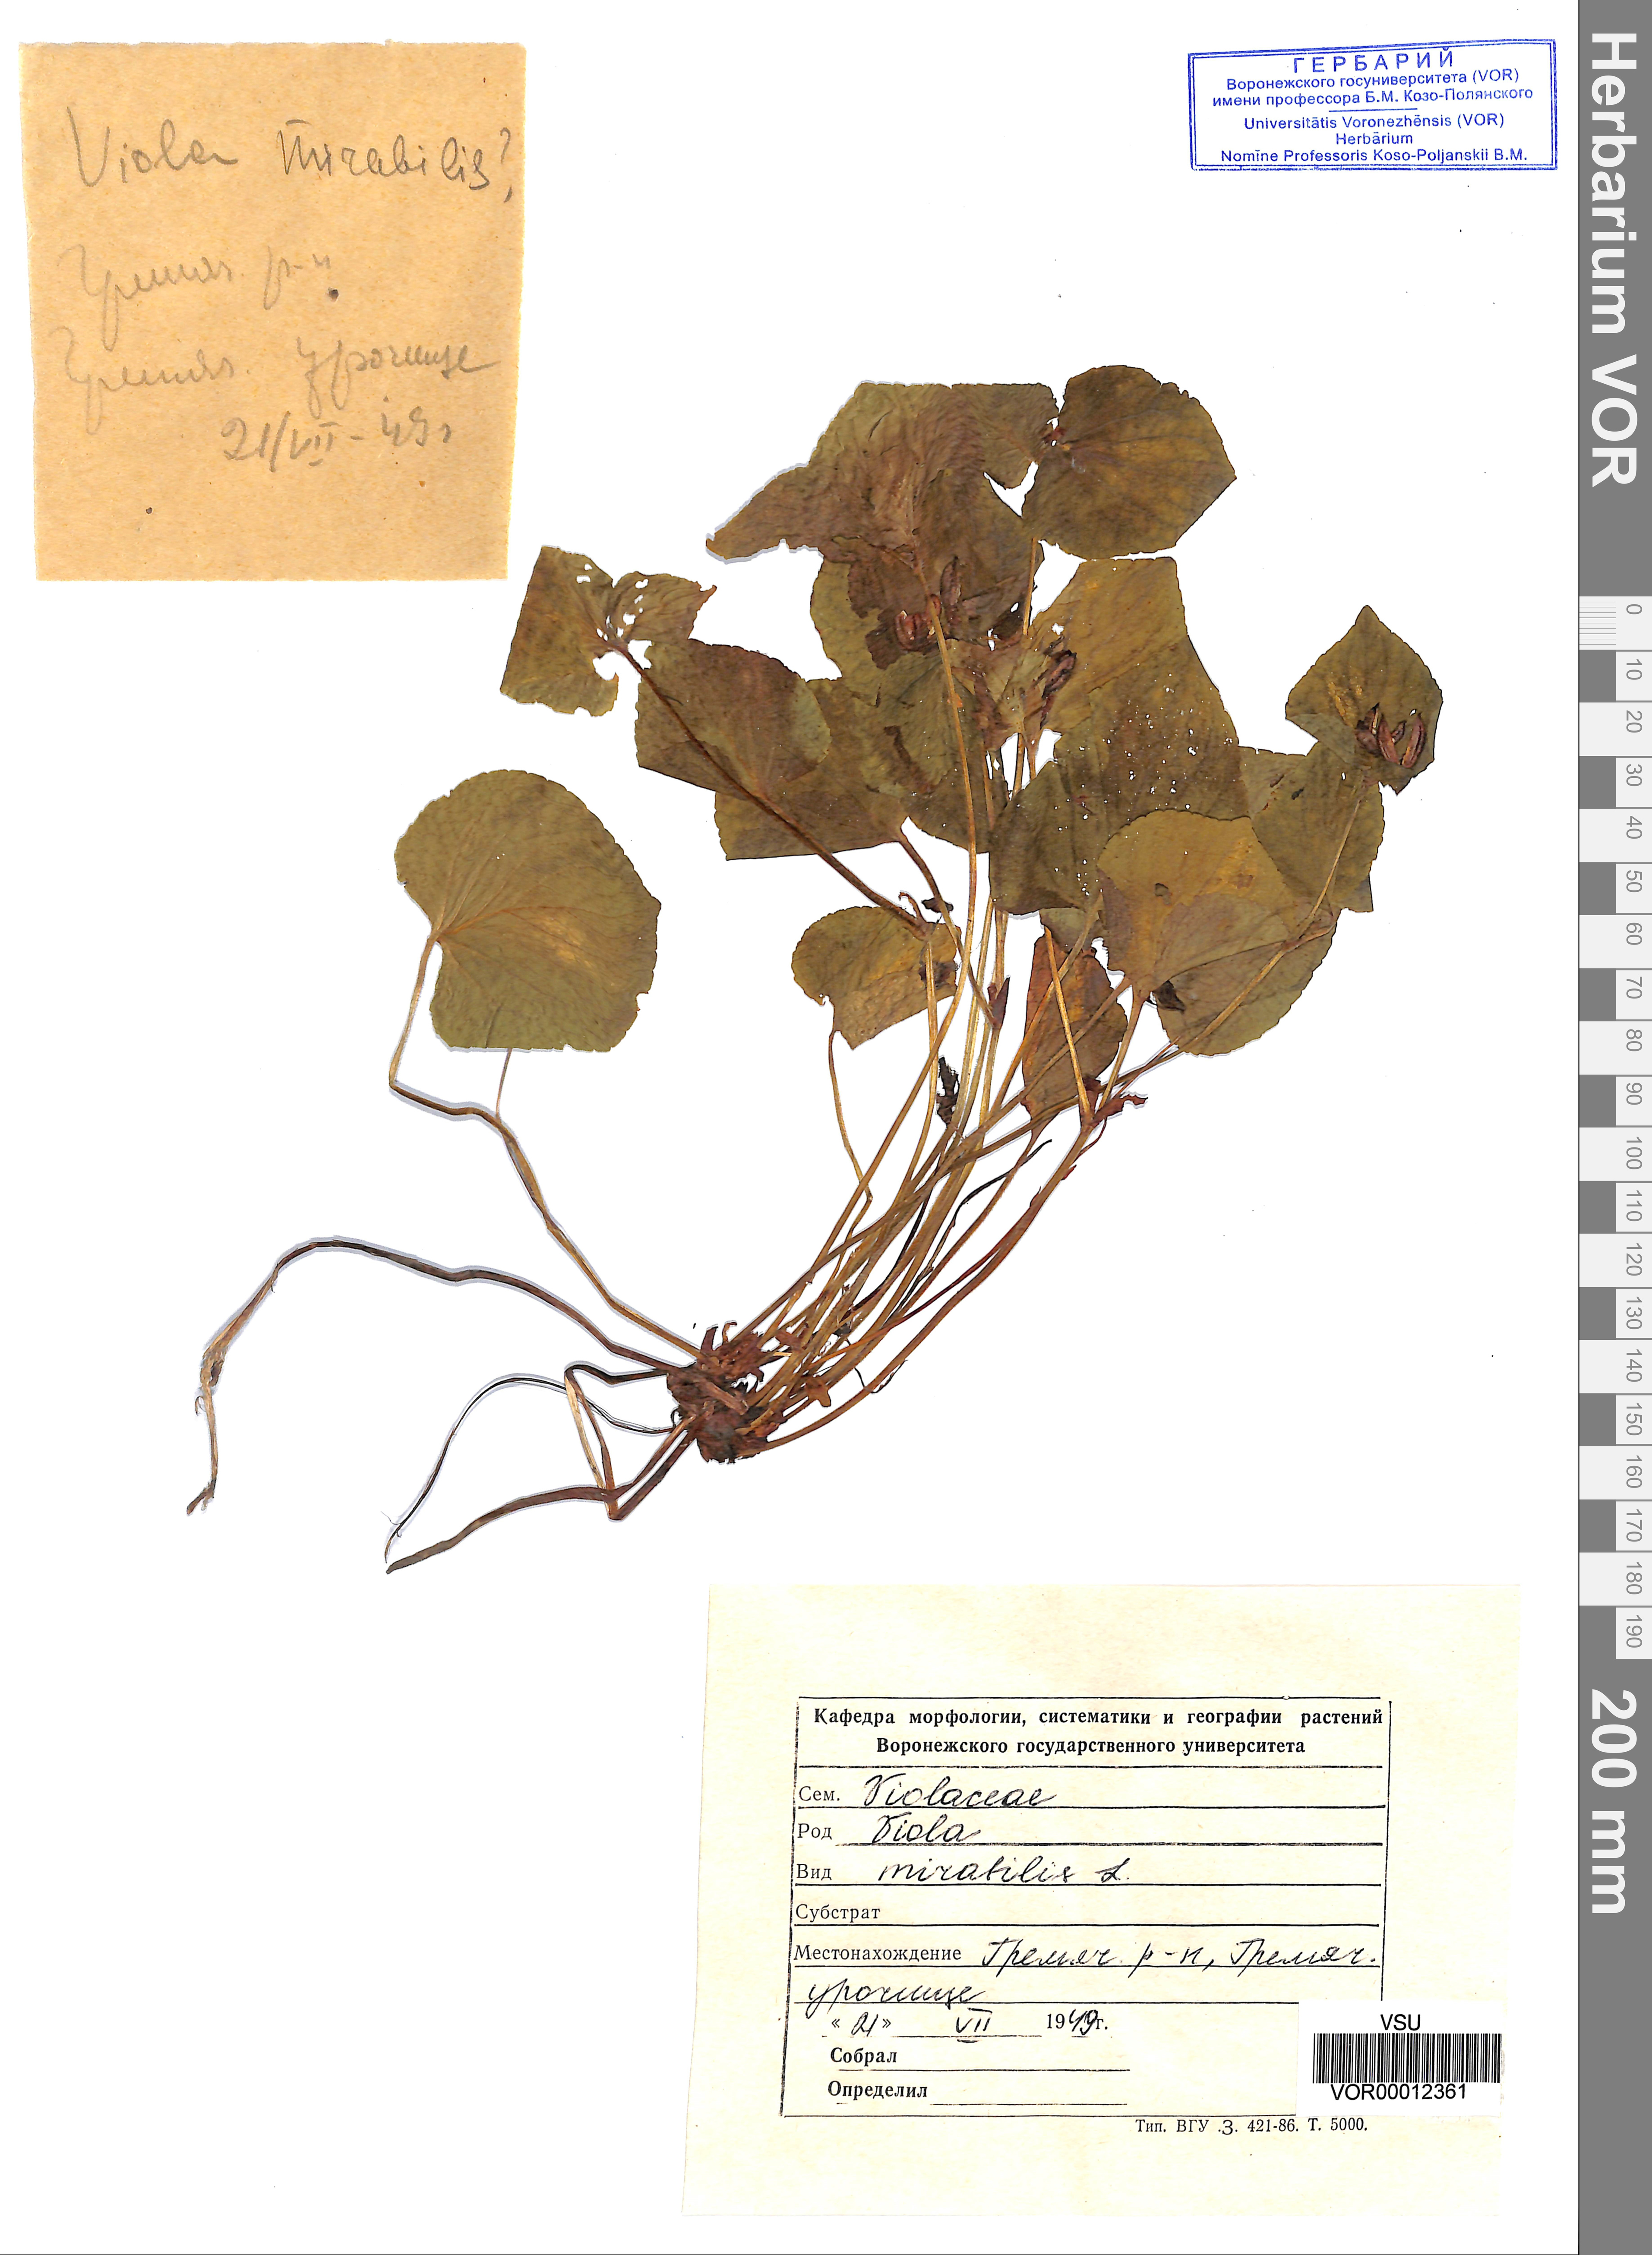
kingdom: Plantae
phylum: Tracheophyta
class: Magnoliopsida
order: Malpighiales
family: Violaceae
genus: Viola
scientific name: Viola mirabilis
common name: Wonder violet
